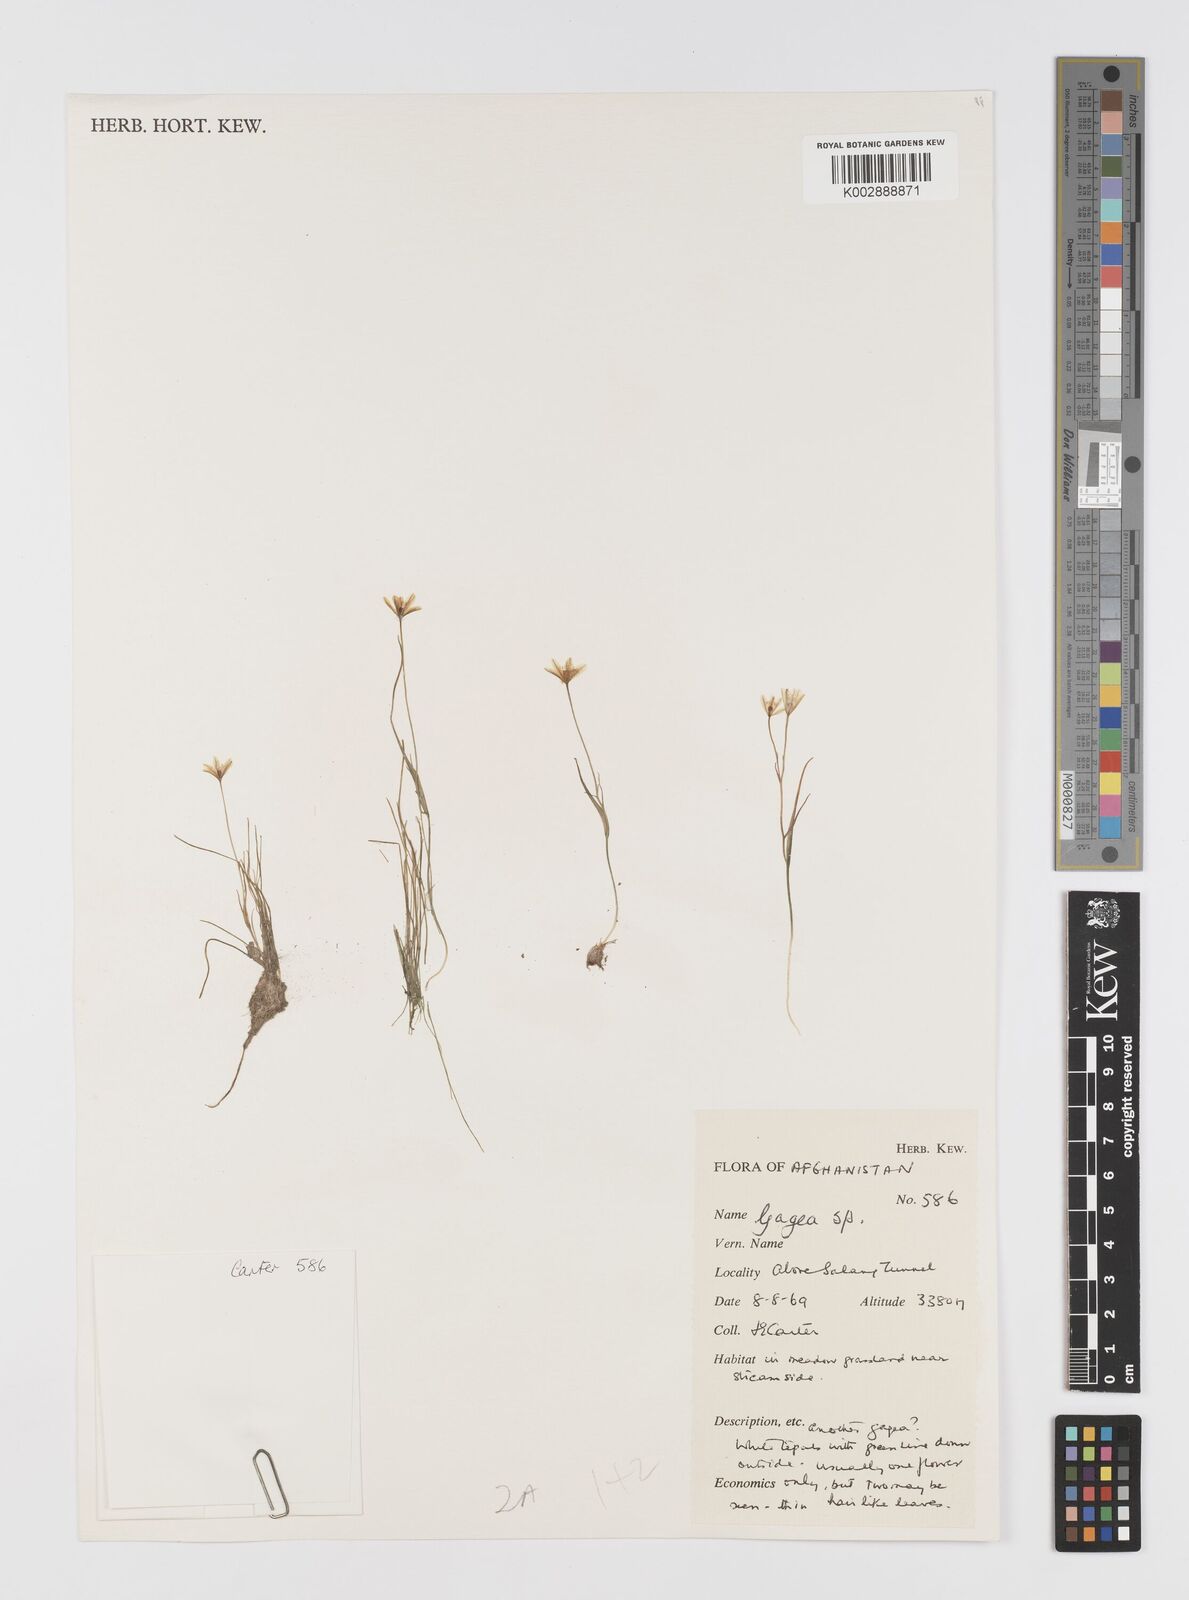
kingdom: Plantae
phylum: Tracheophyta
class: Liliopsida
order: Liliales
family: Liliaceae
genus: Gagea
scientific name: Gagea
